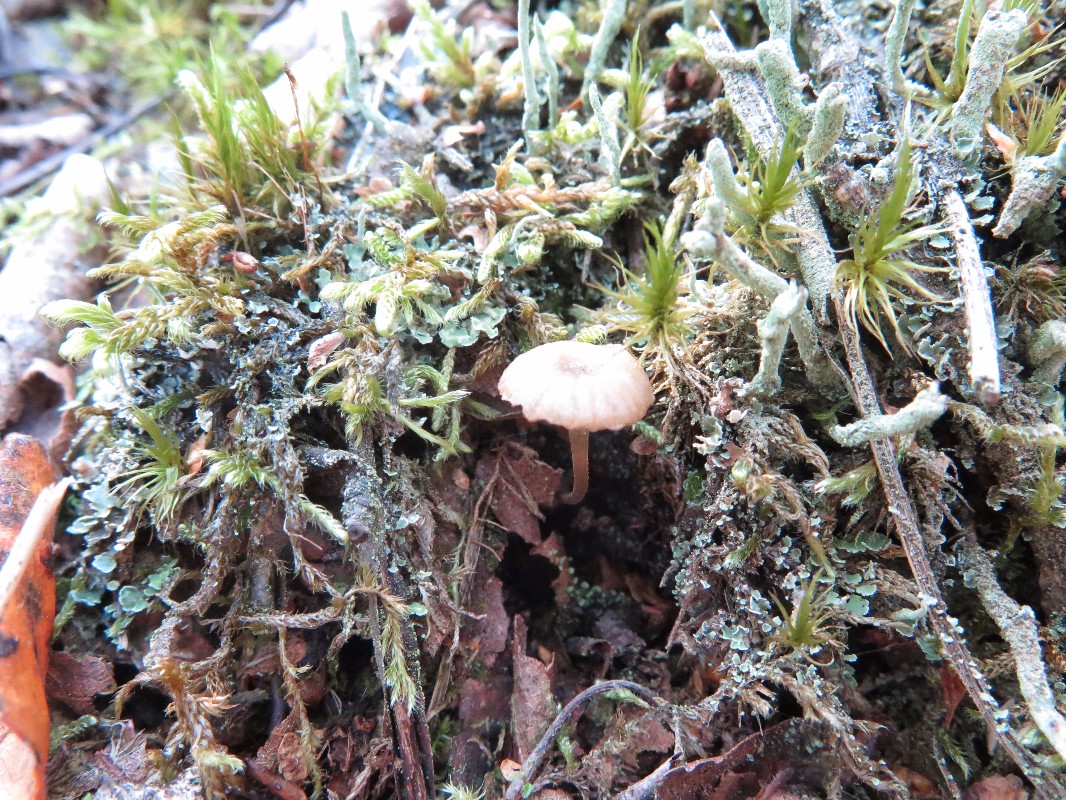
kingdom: Fungi
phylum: Basidiomycota
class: Agaricomycetes
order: Agaricales
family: Hygrophoraceae
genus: Lichenomphalia
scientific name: Lichenomphalia umbellifera
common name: tørve-lavhat
